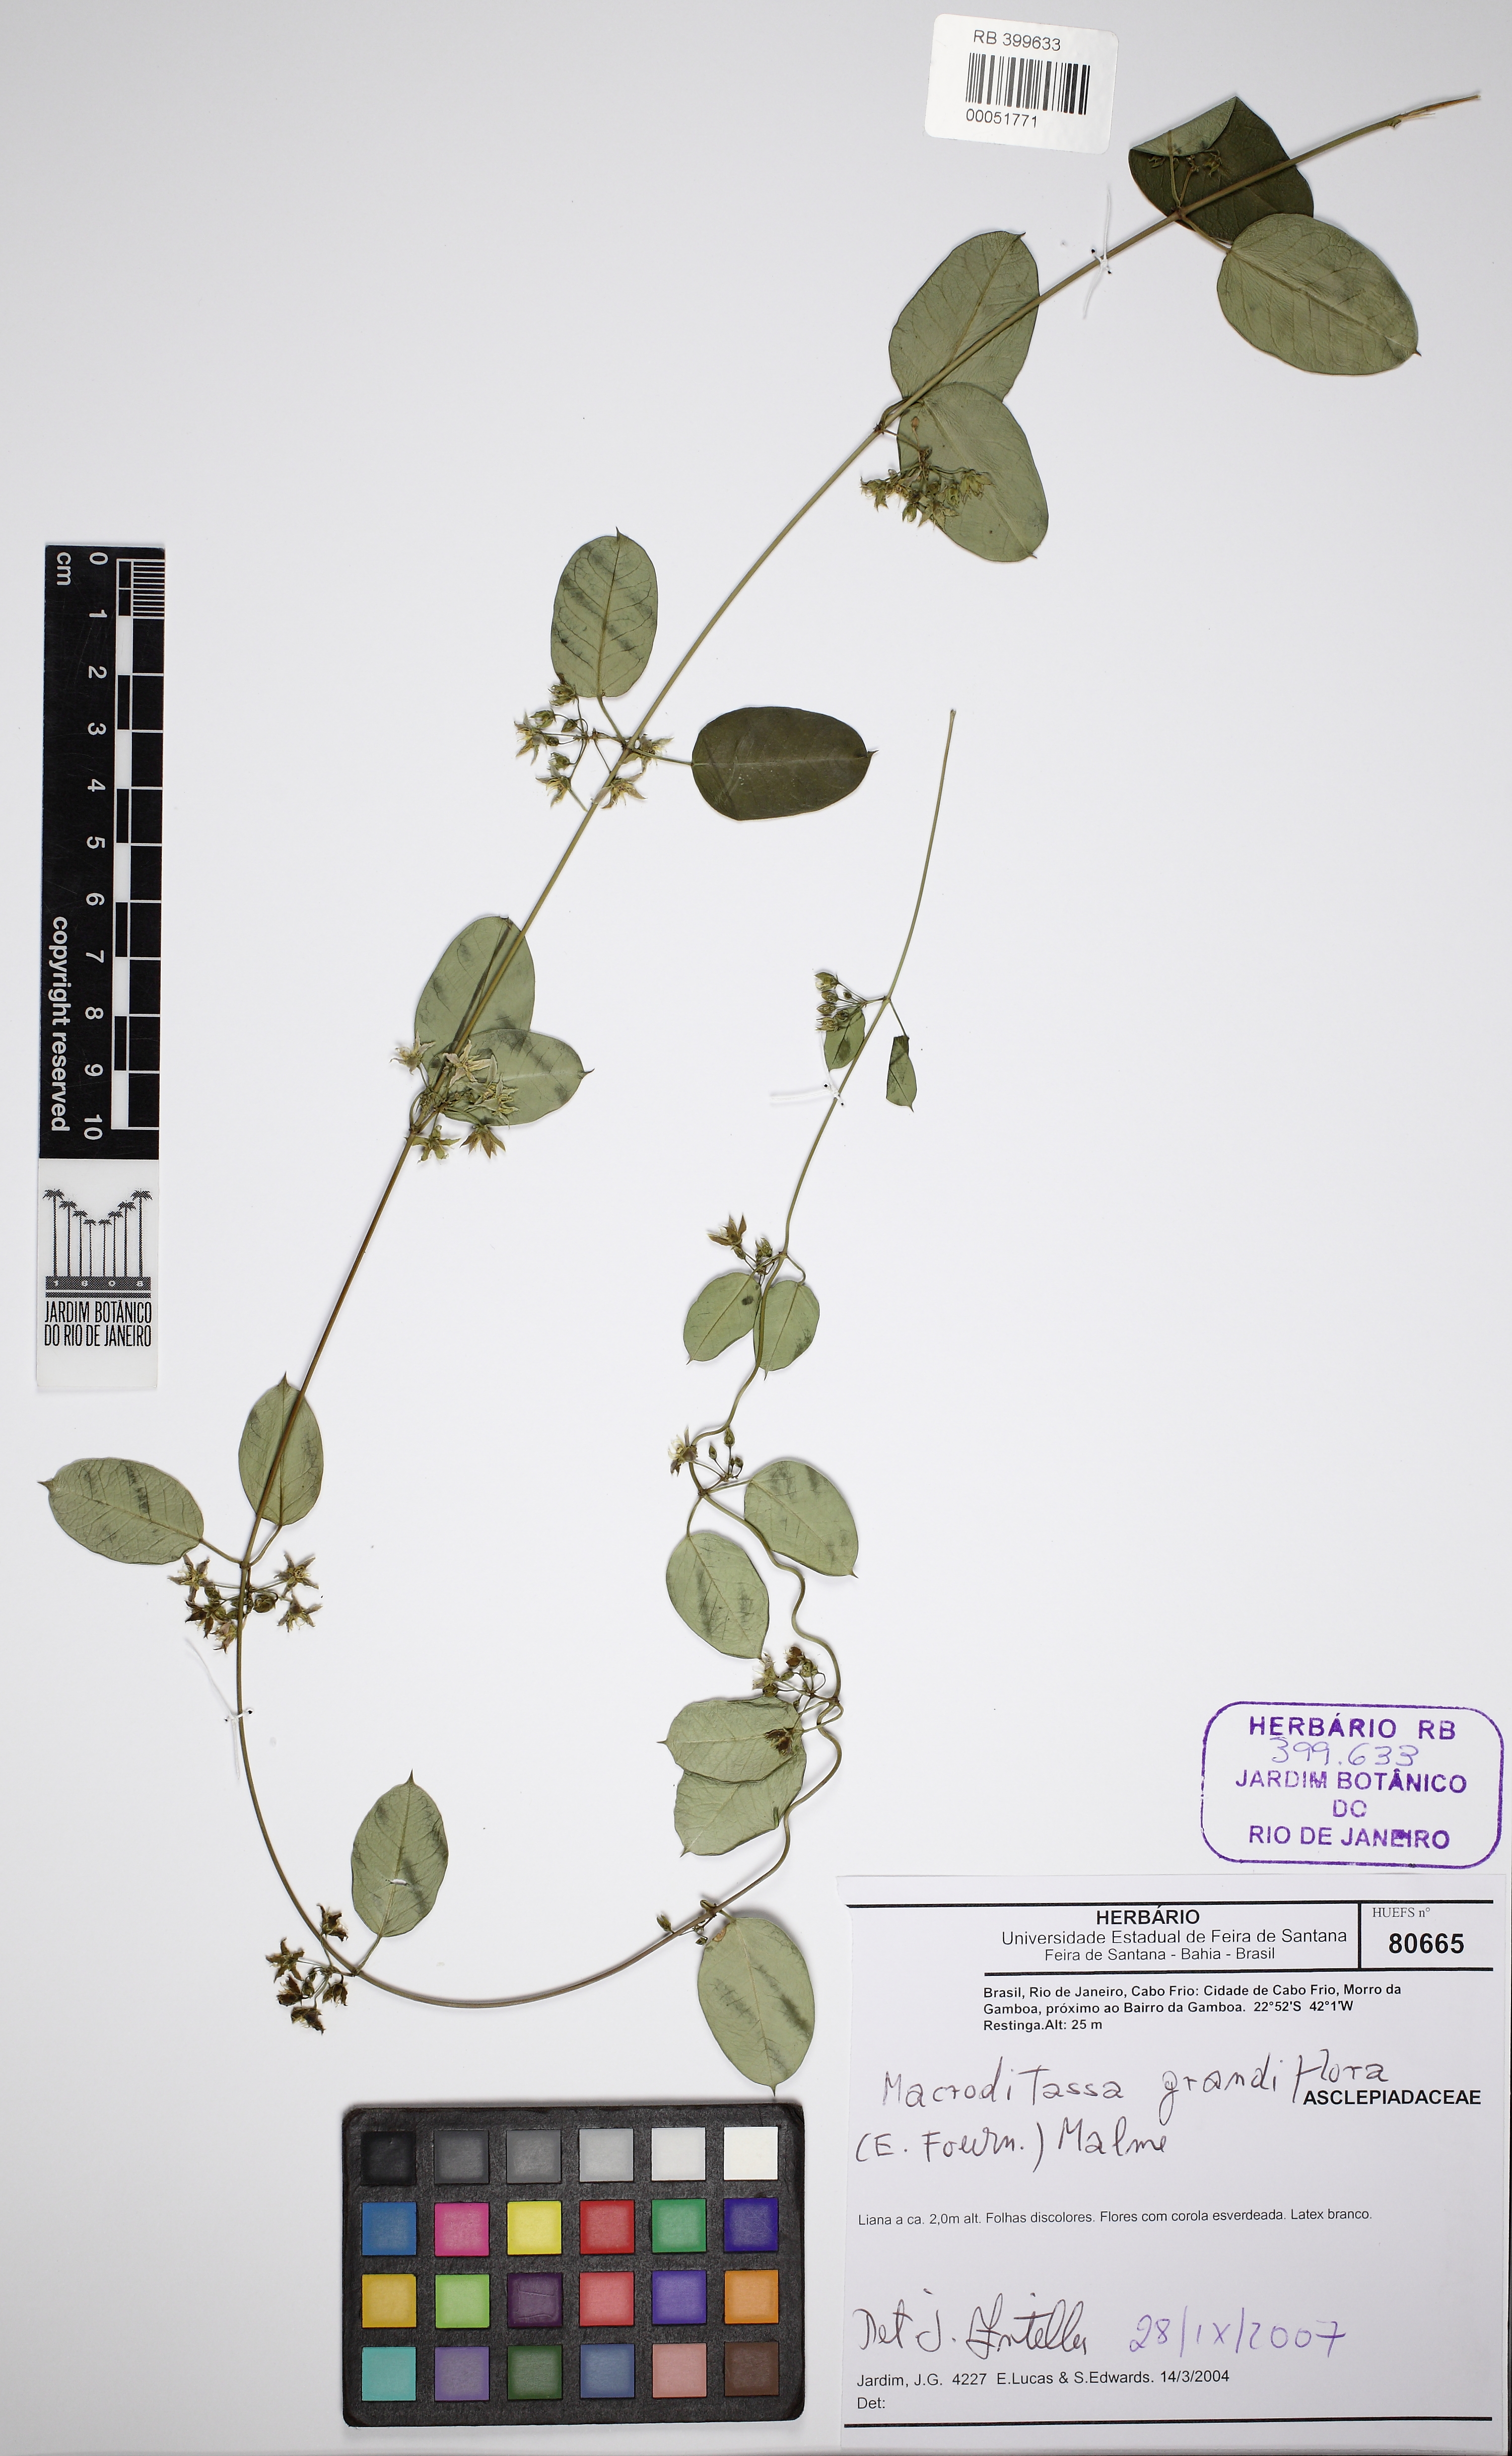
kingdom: Plantae
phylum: Tracheophyta
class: Magnoliopsida
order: Gentianales
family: Apocynaceae
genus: Macroditassa
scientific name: Macroditassa grandiflora
